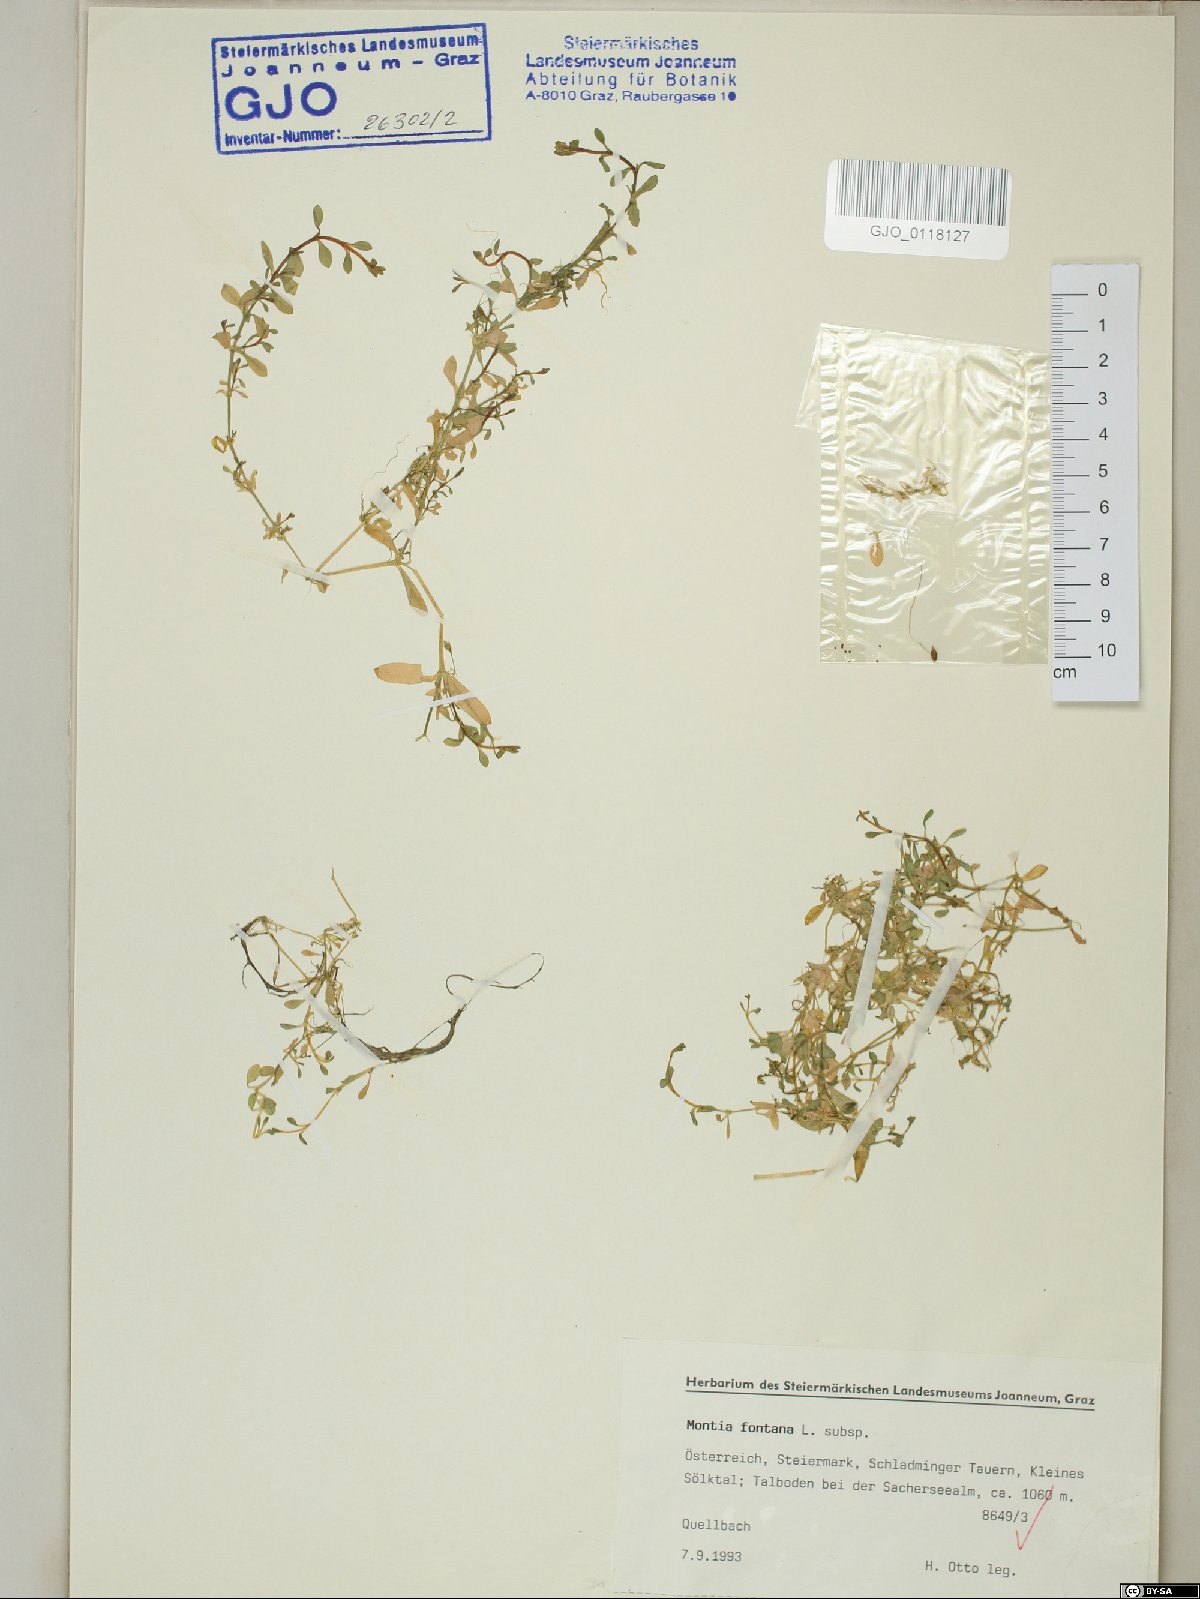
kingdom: Plantae
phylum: Tracheophyta
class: Magnoliopsida
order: Caryophyllales
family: Montiaceae
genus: Montia
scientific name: Montia fontana
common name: Blinks
